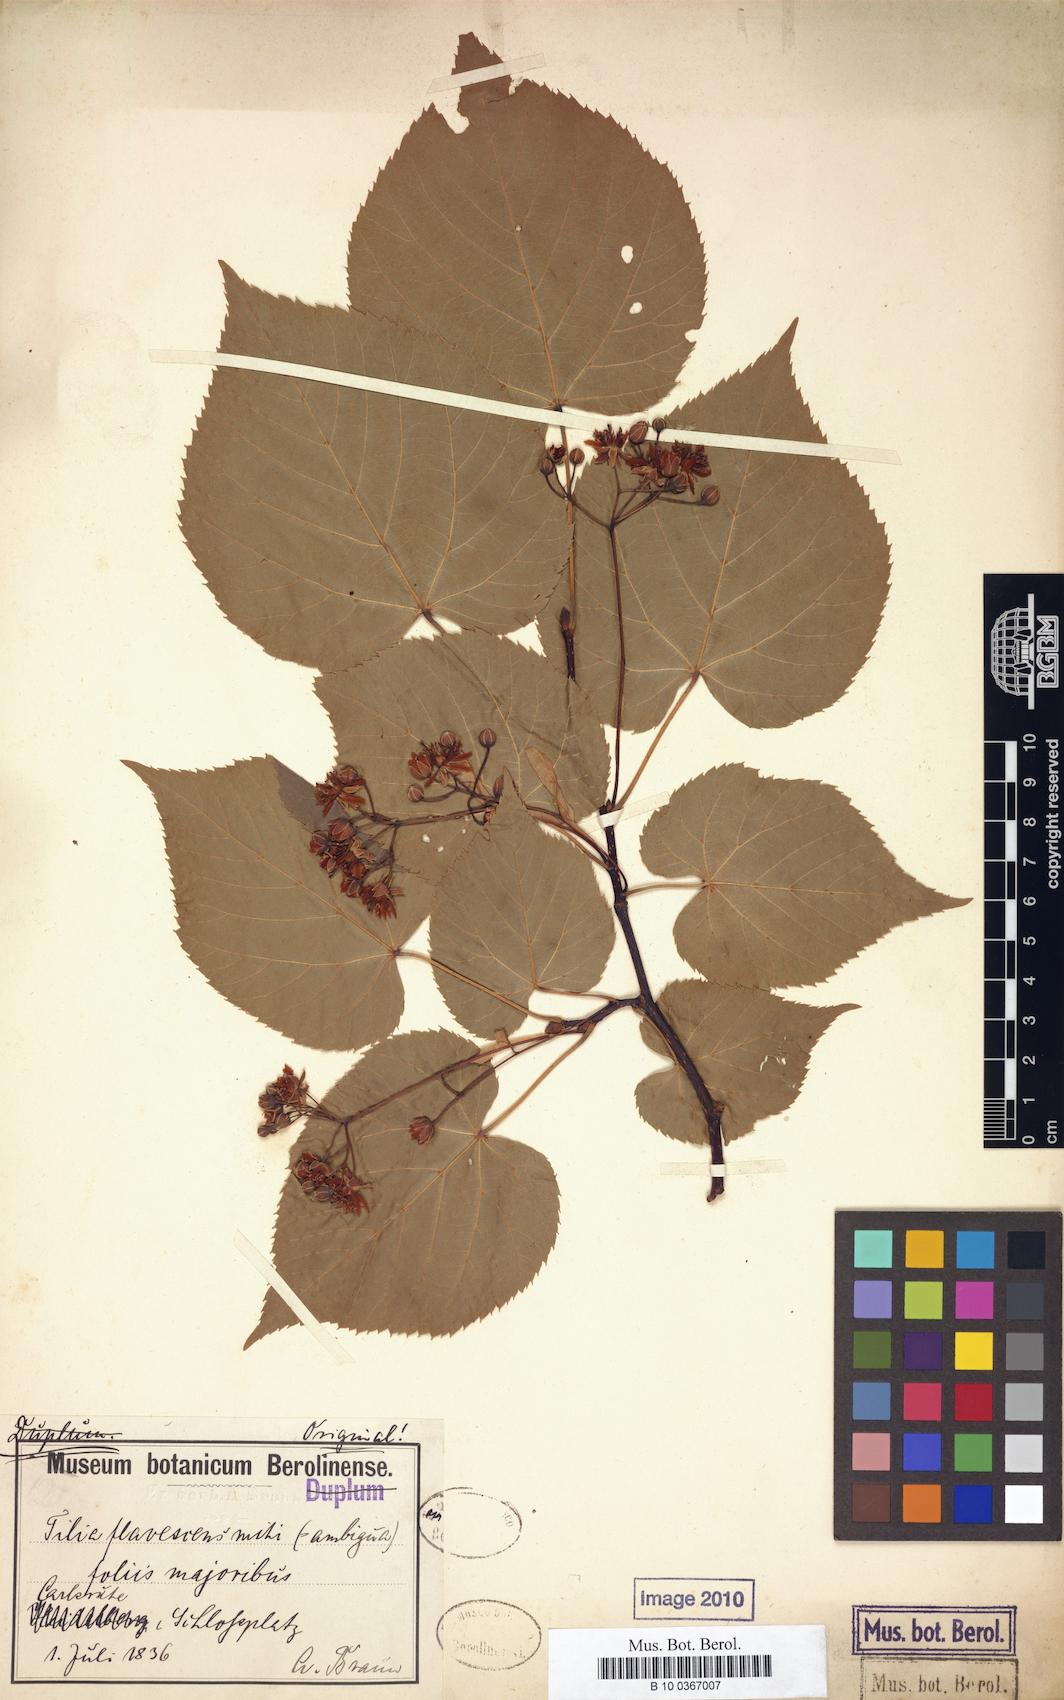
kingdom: Plantae
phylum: Tracheophyta
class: Magnoliopsida
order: Malvales
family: Malvaceae
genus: Tilia
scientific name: Tilia flavescens
